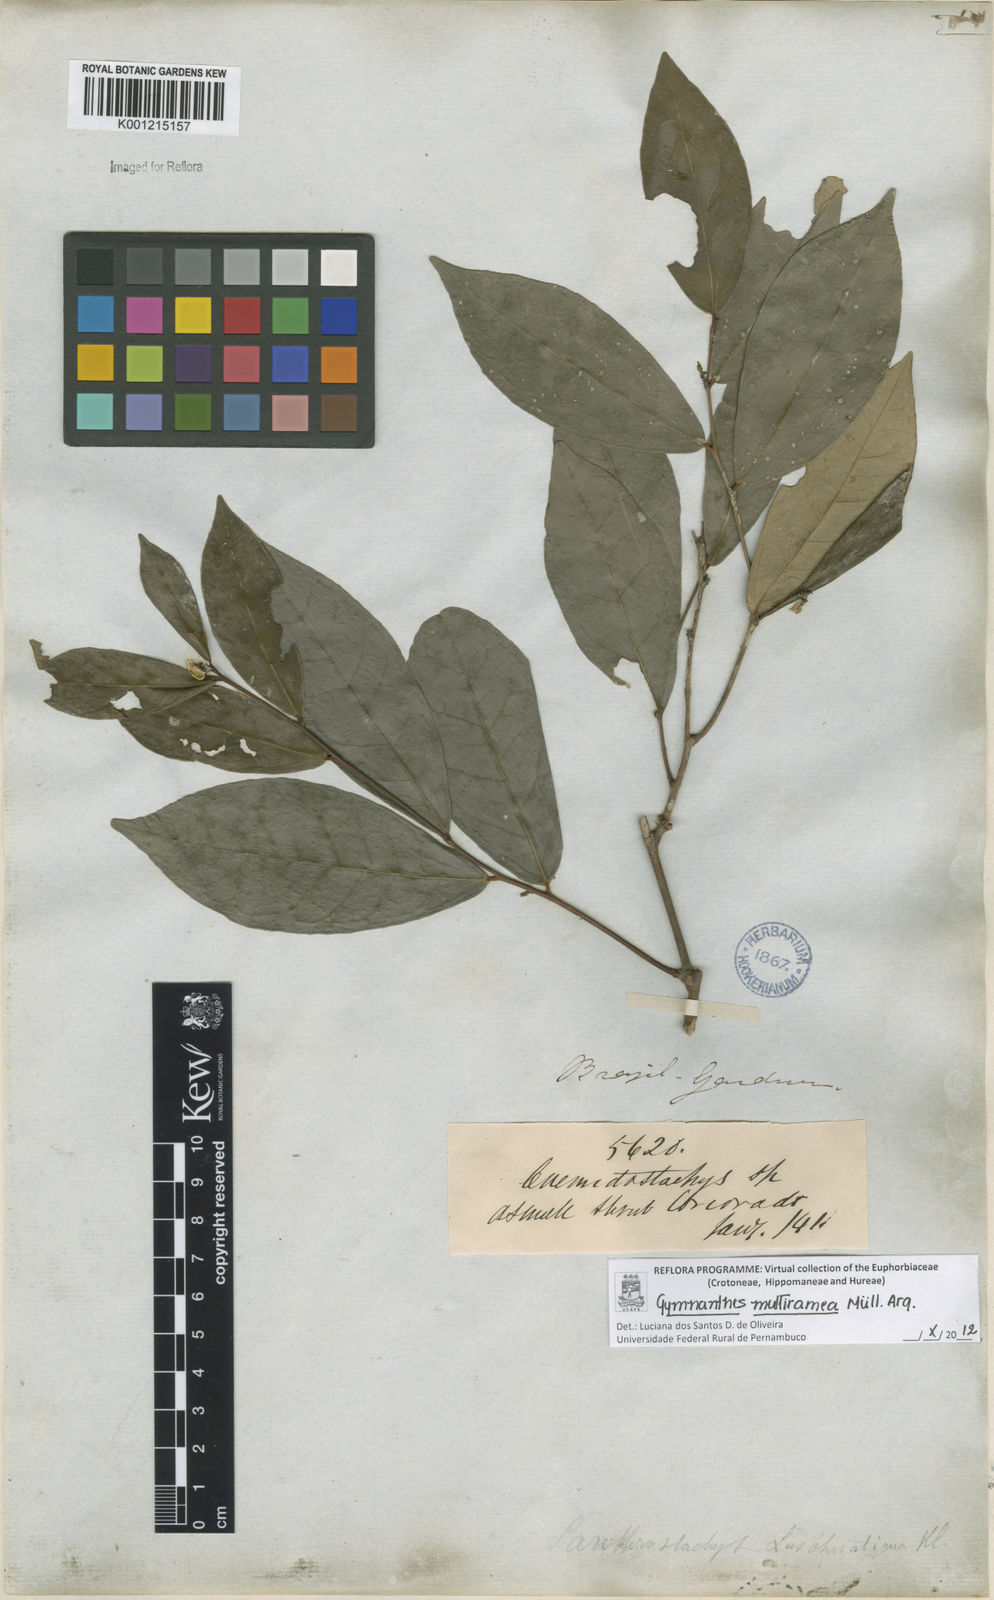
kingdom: Plantae
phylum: Tracheophyta
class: Magnoliopsida
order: Malpighiales
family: Euphorbiaceae
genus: Gymnanthes
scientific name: Gymnanthes
